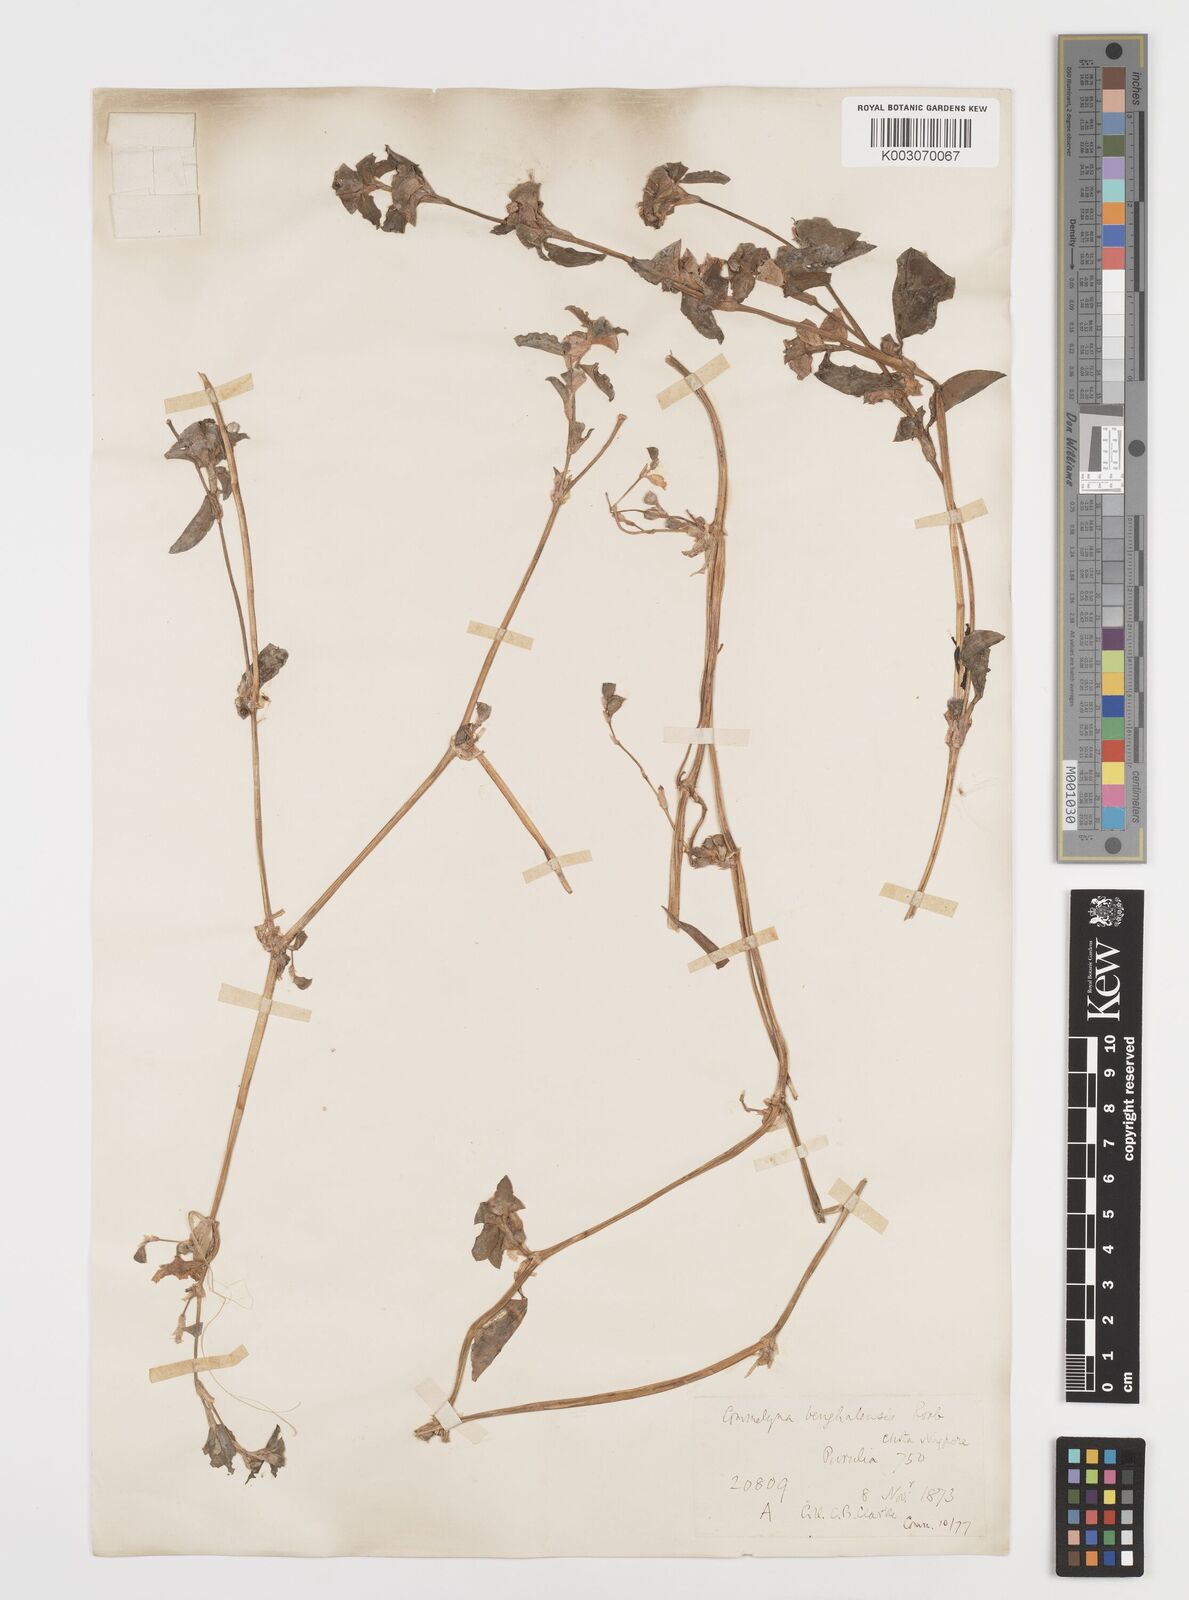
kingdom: Plantae
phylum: Tracheophyta
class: Liliopsida
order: Commelinales
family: Commelinaceae
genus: Commelina
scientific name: Commelina benghalensis
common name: Jio
